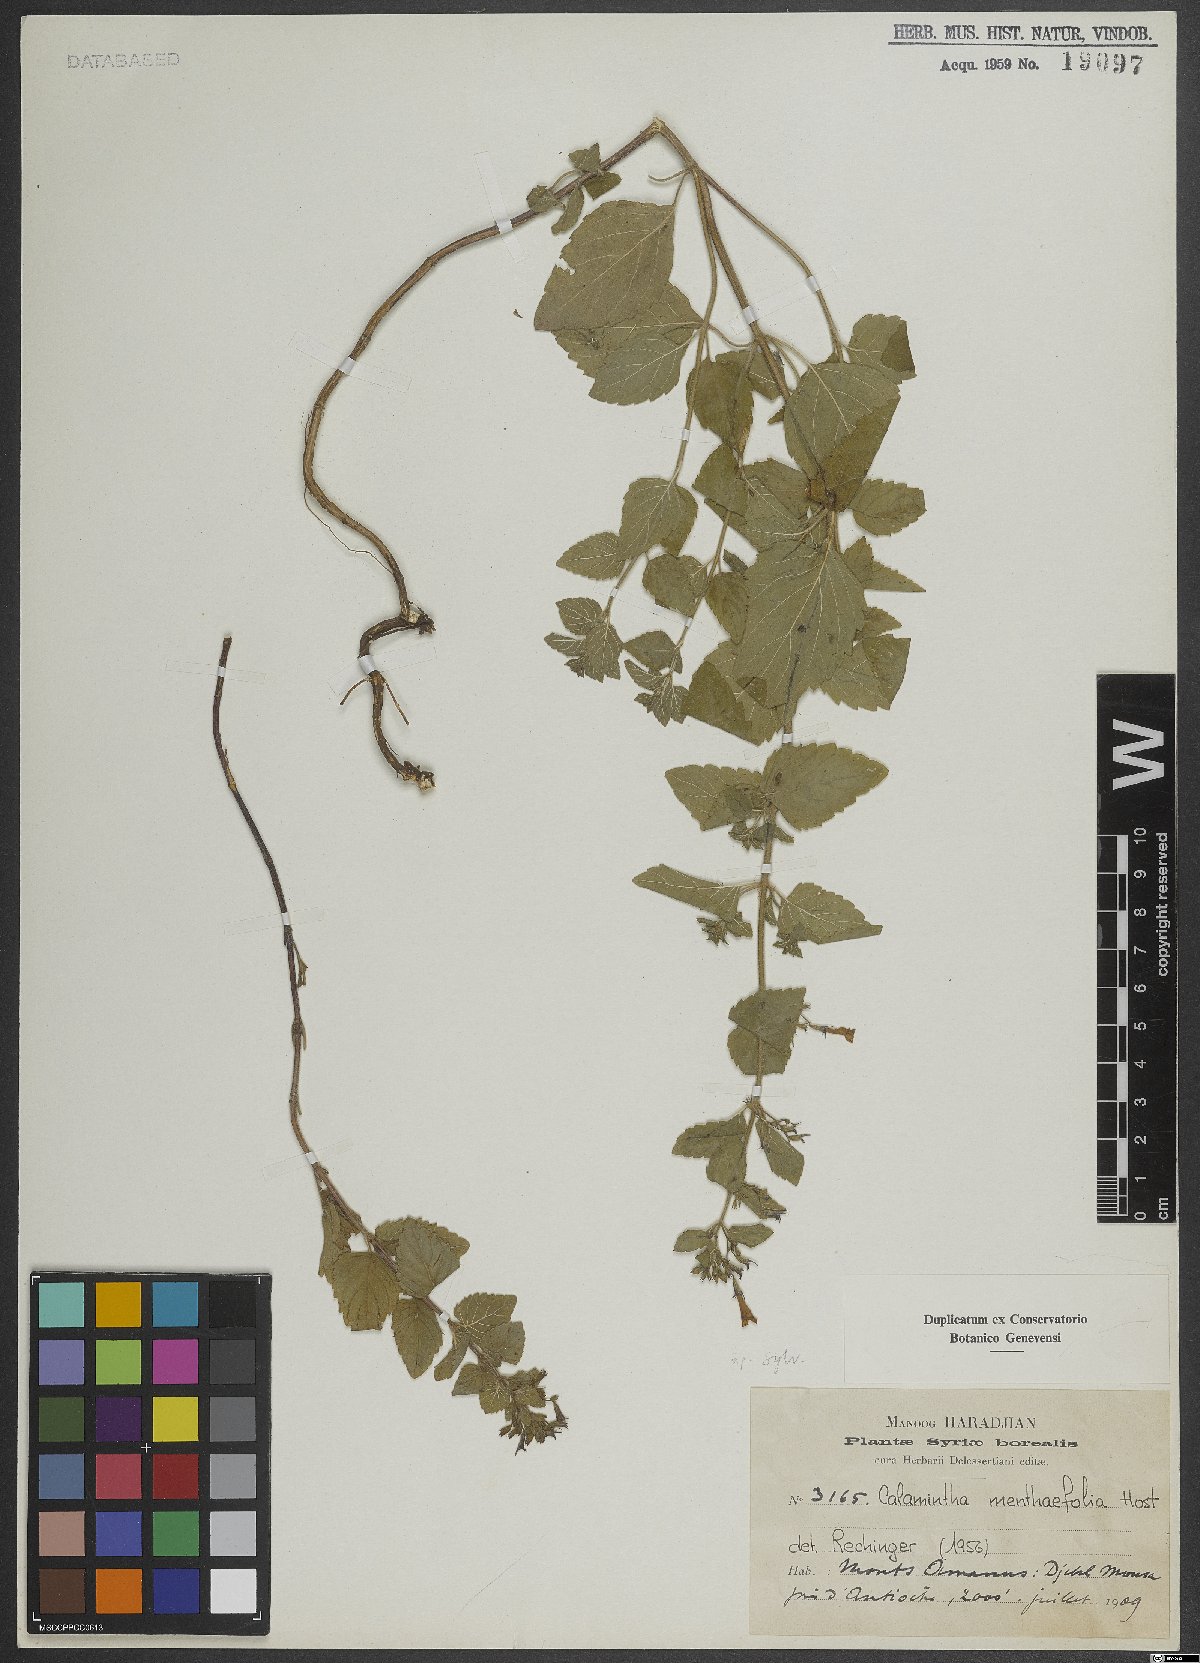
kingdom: Plantae
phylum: Tracheophyta
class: Magnoliopsida
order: Lamiales
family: Lamiaceae
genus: Calamintha
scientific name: Calamintha
